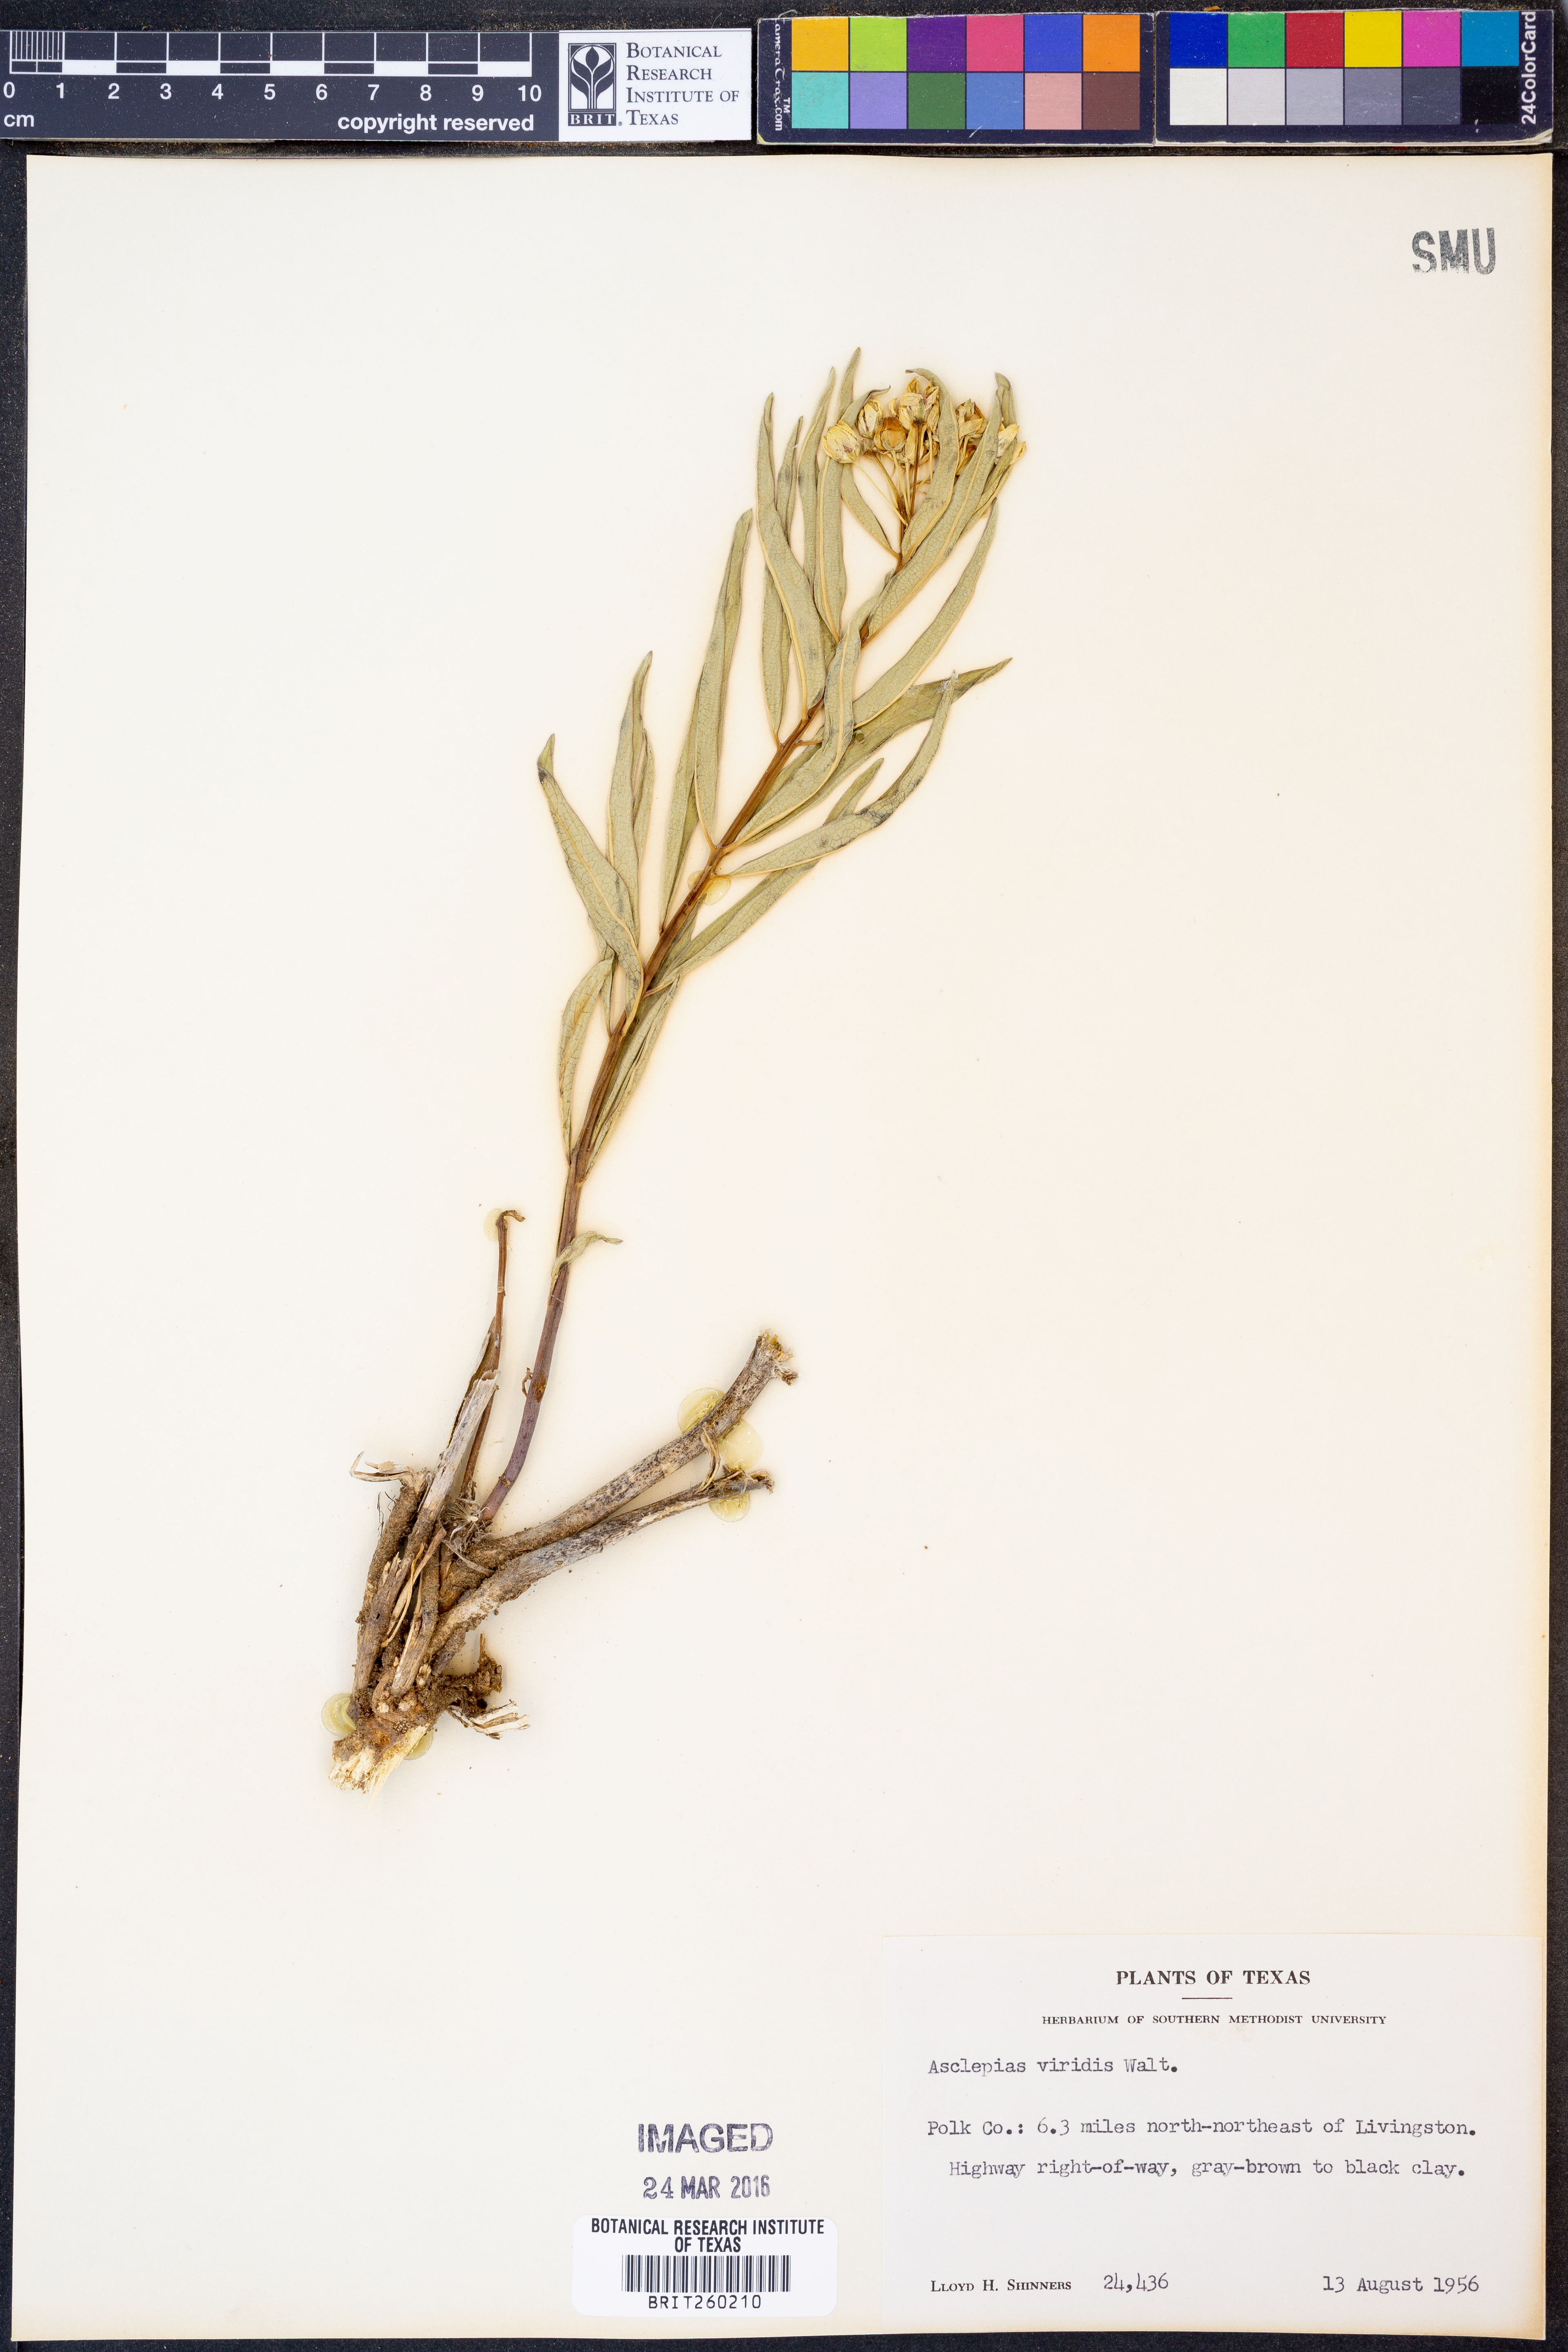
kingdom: Plantae
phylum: Tracheophyta
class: Magnoliopsida
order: Gentianales
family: Apocynaceae
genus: Asclepias
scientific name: Asclepias viridis
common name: Antelope-horns
